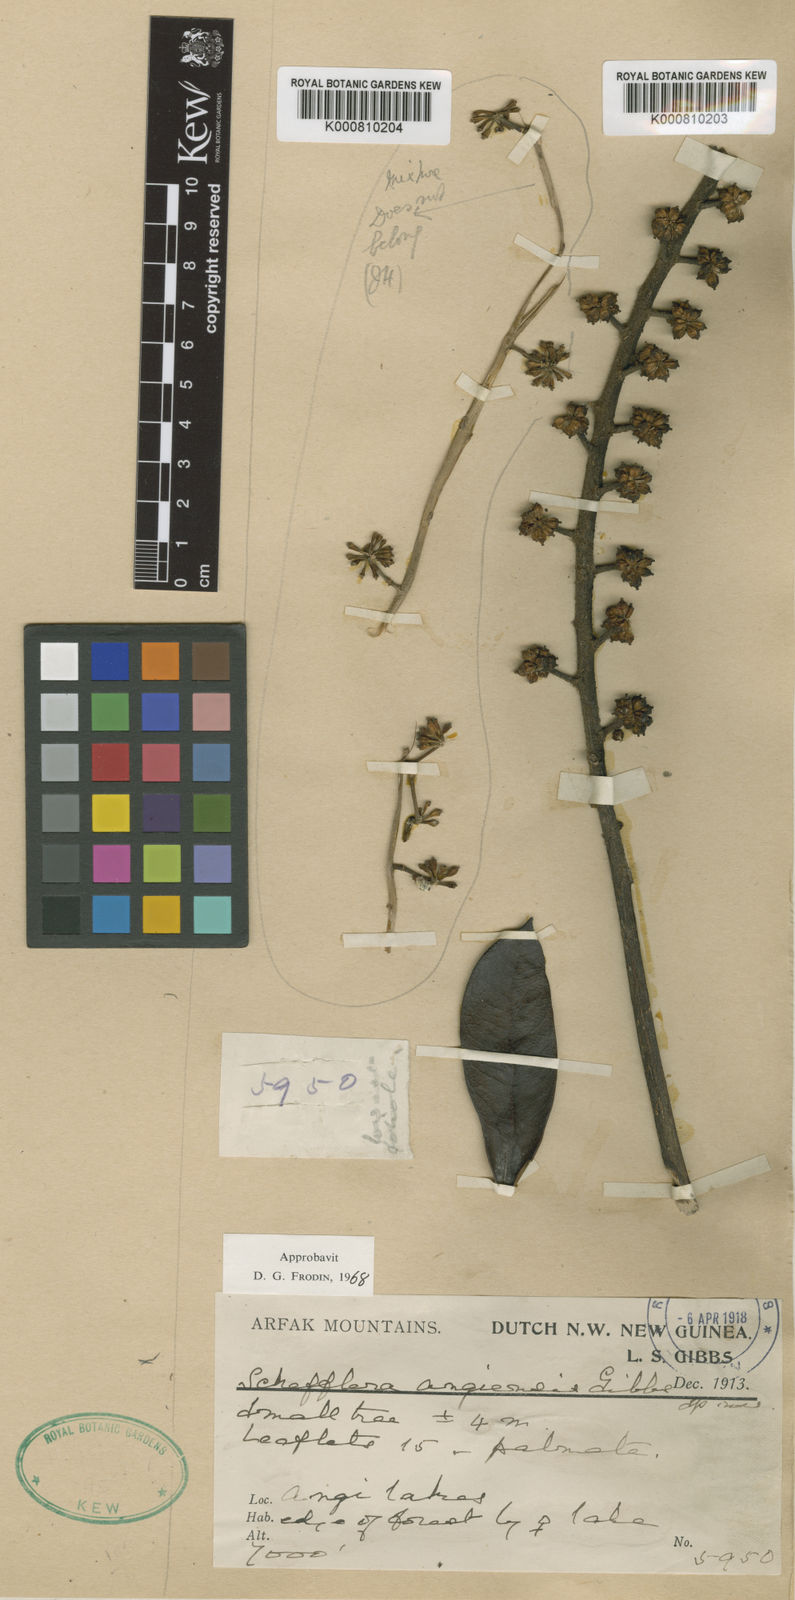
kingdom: Plantae
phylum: Tracheophyta
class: Magnoliopsida
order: Apiales
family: Araliaceae
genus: Heptapleurum
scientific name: Heptapleurum angiense
